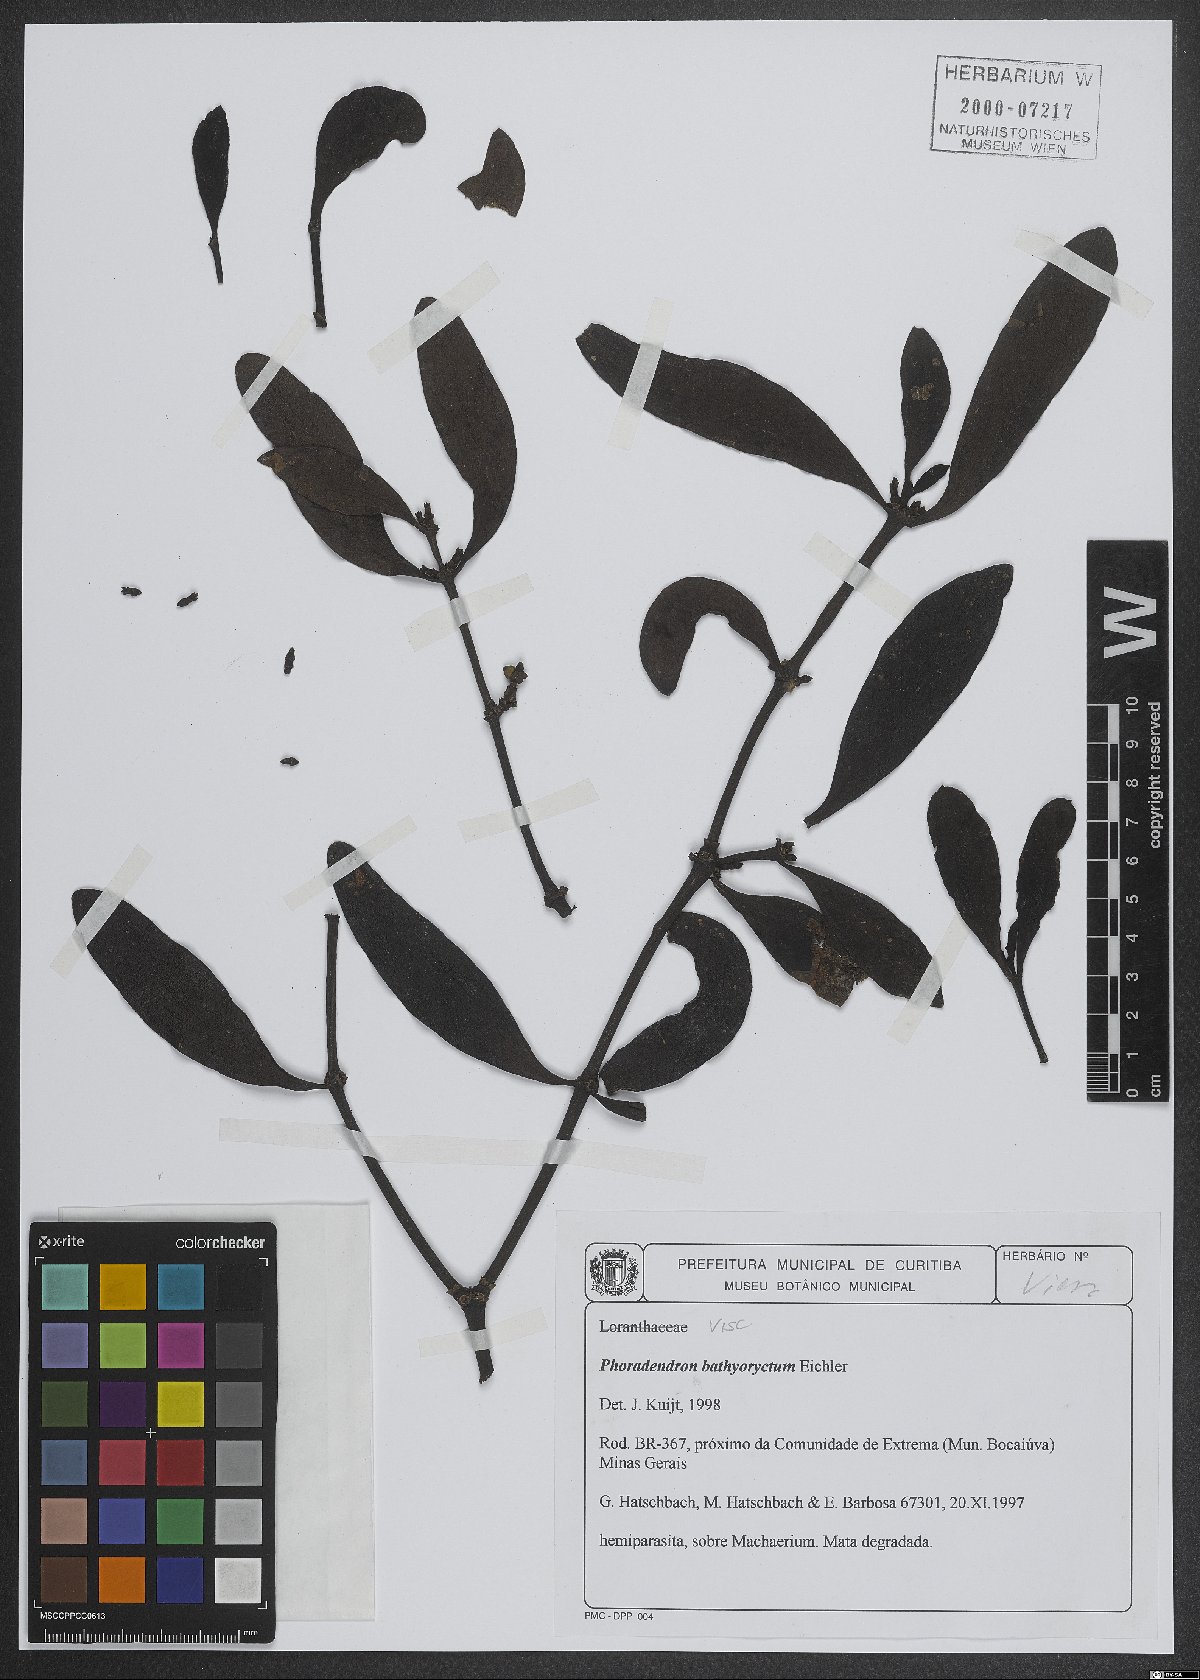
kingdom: Plantae
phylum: Tracheophyta
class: Magnoliopsida
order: Santalales
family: Viscaceae
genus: Phoradendron
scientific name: Phoradendron bathyoryctum
